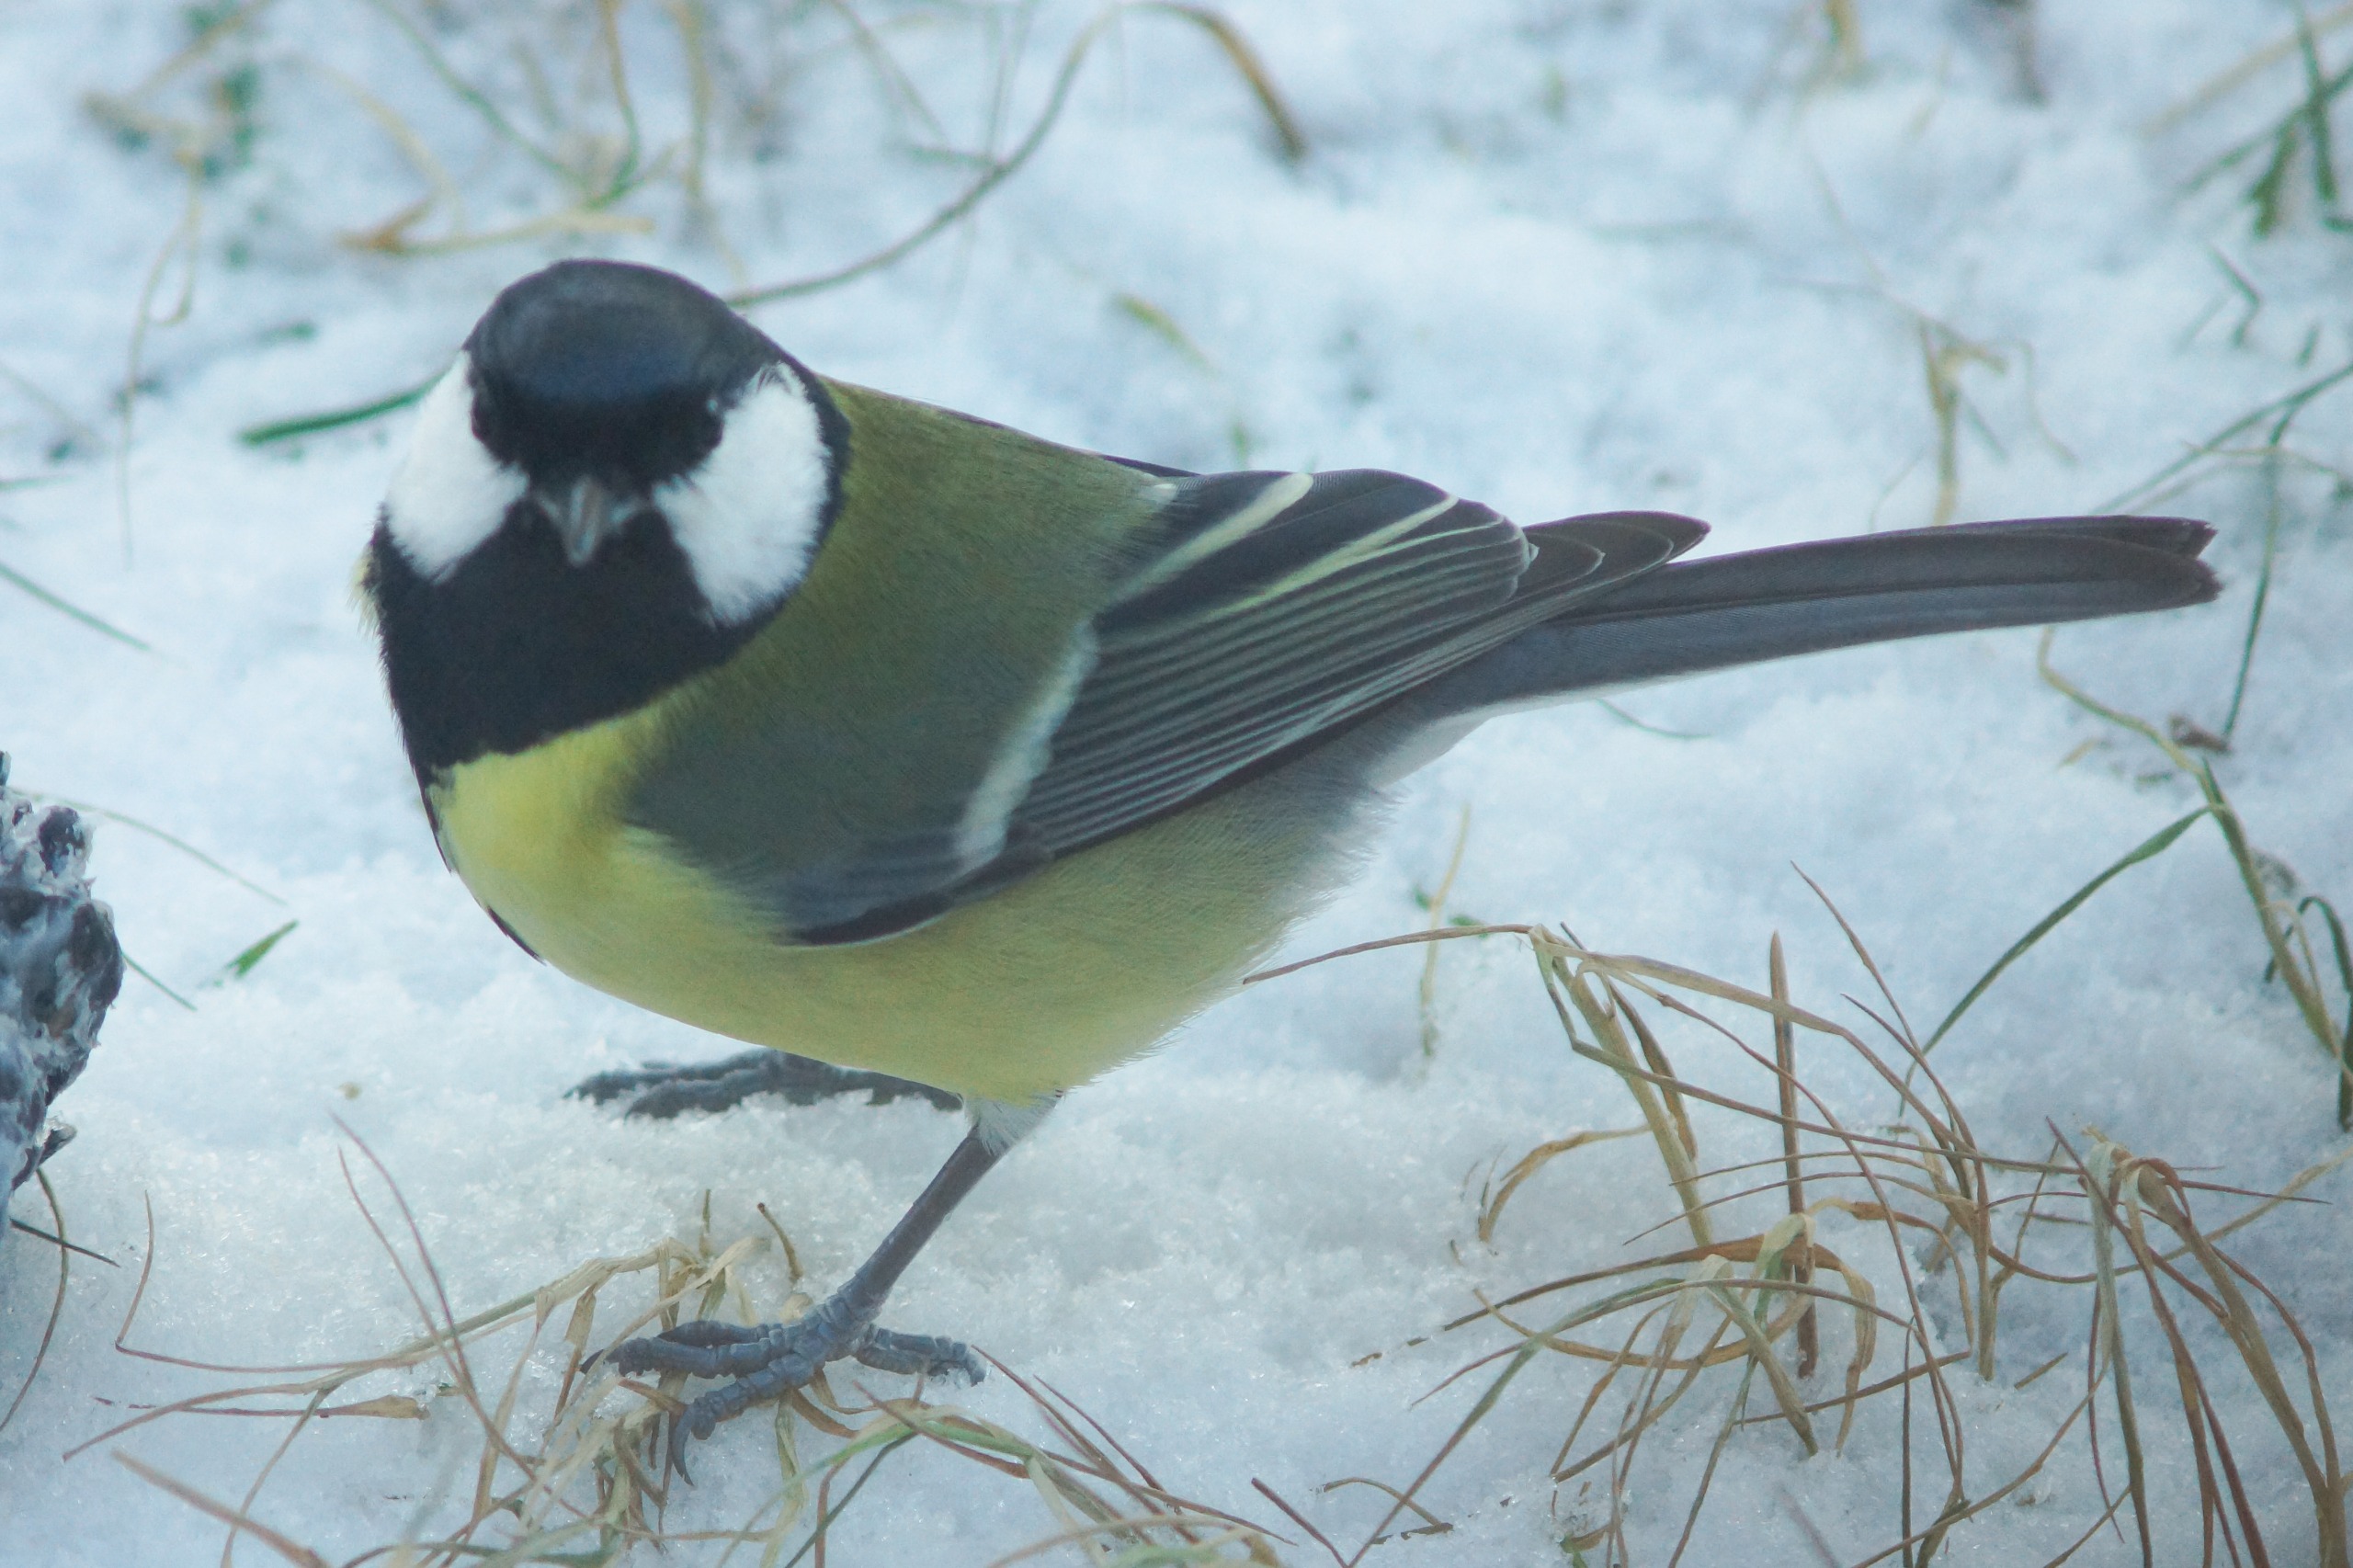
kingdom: Animalia
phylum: Chordata
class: Aves
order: Passeriformes
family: Paridae
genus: Parus
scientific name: Parus major
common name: Musvit
